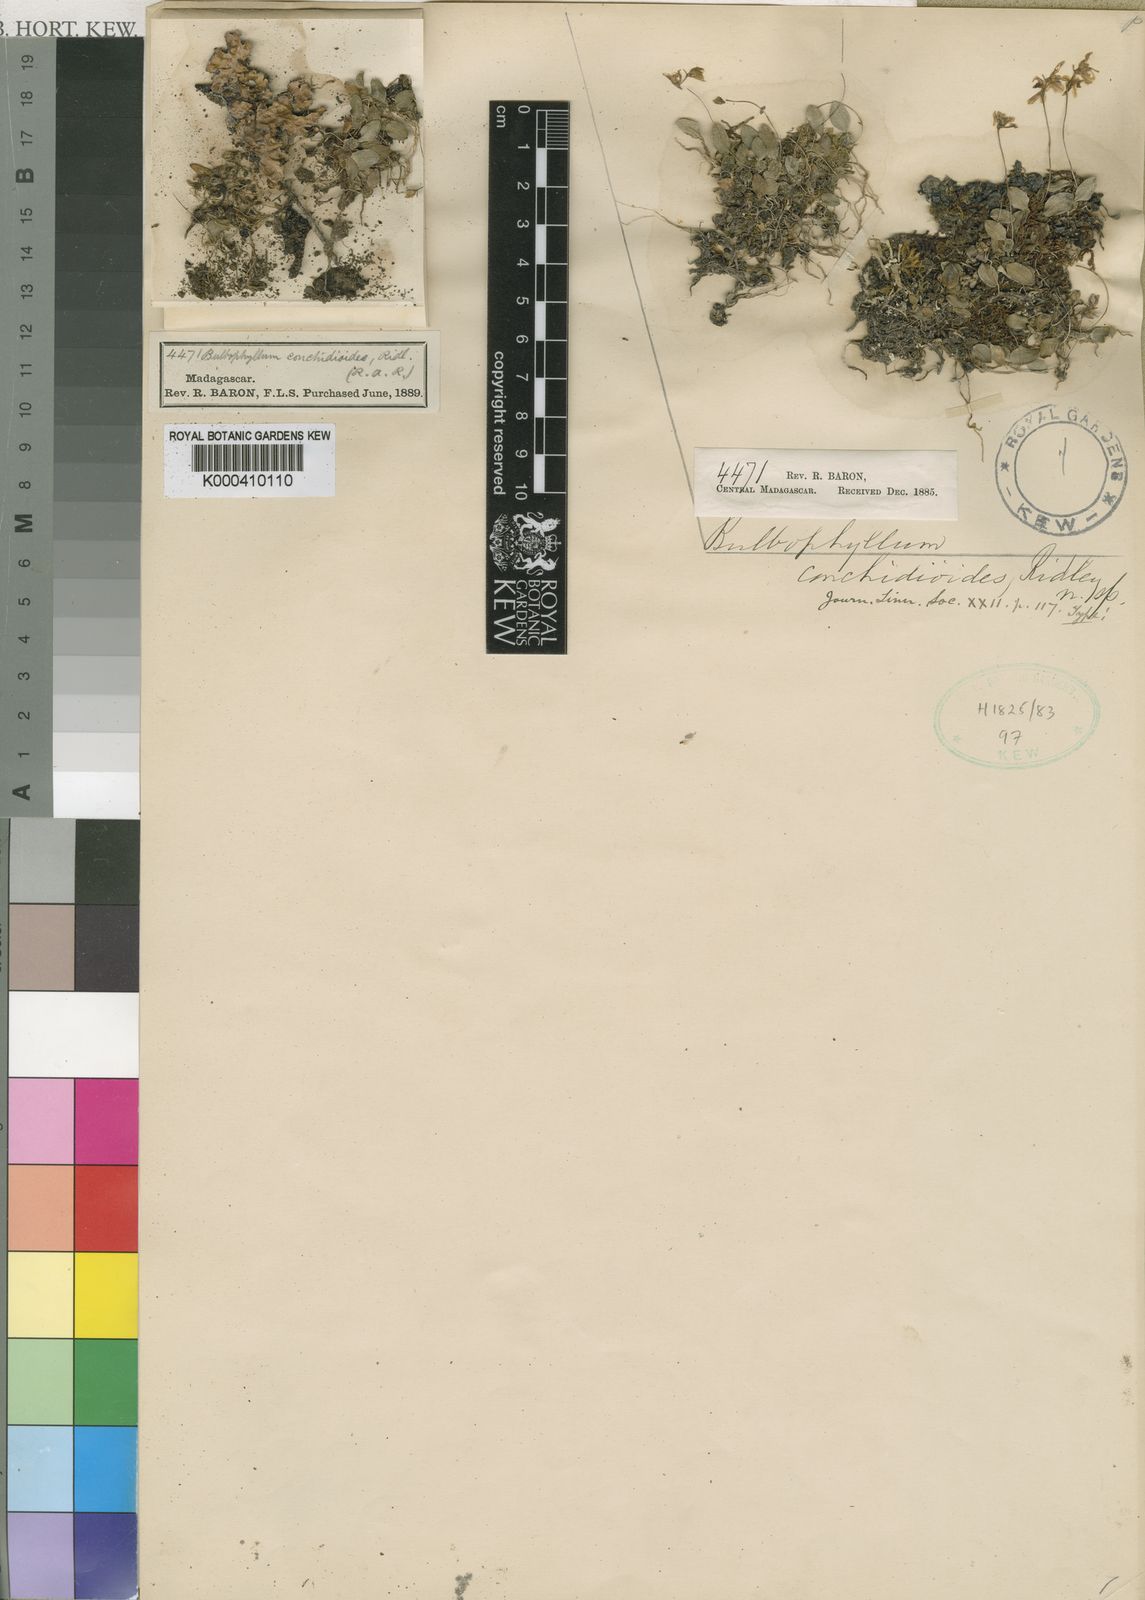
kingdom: Plantae
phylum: Tracheophyta
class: Liliopsida
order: Asparagales
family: Orchidaceae
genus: Bulbophyllum
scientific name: Bulbophyllum
